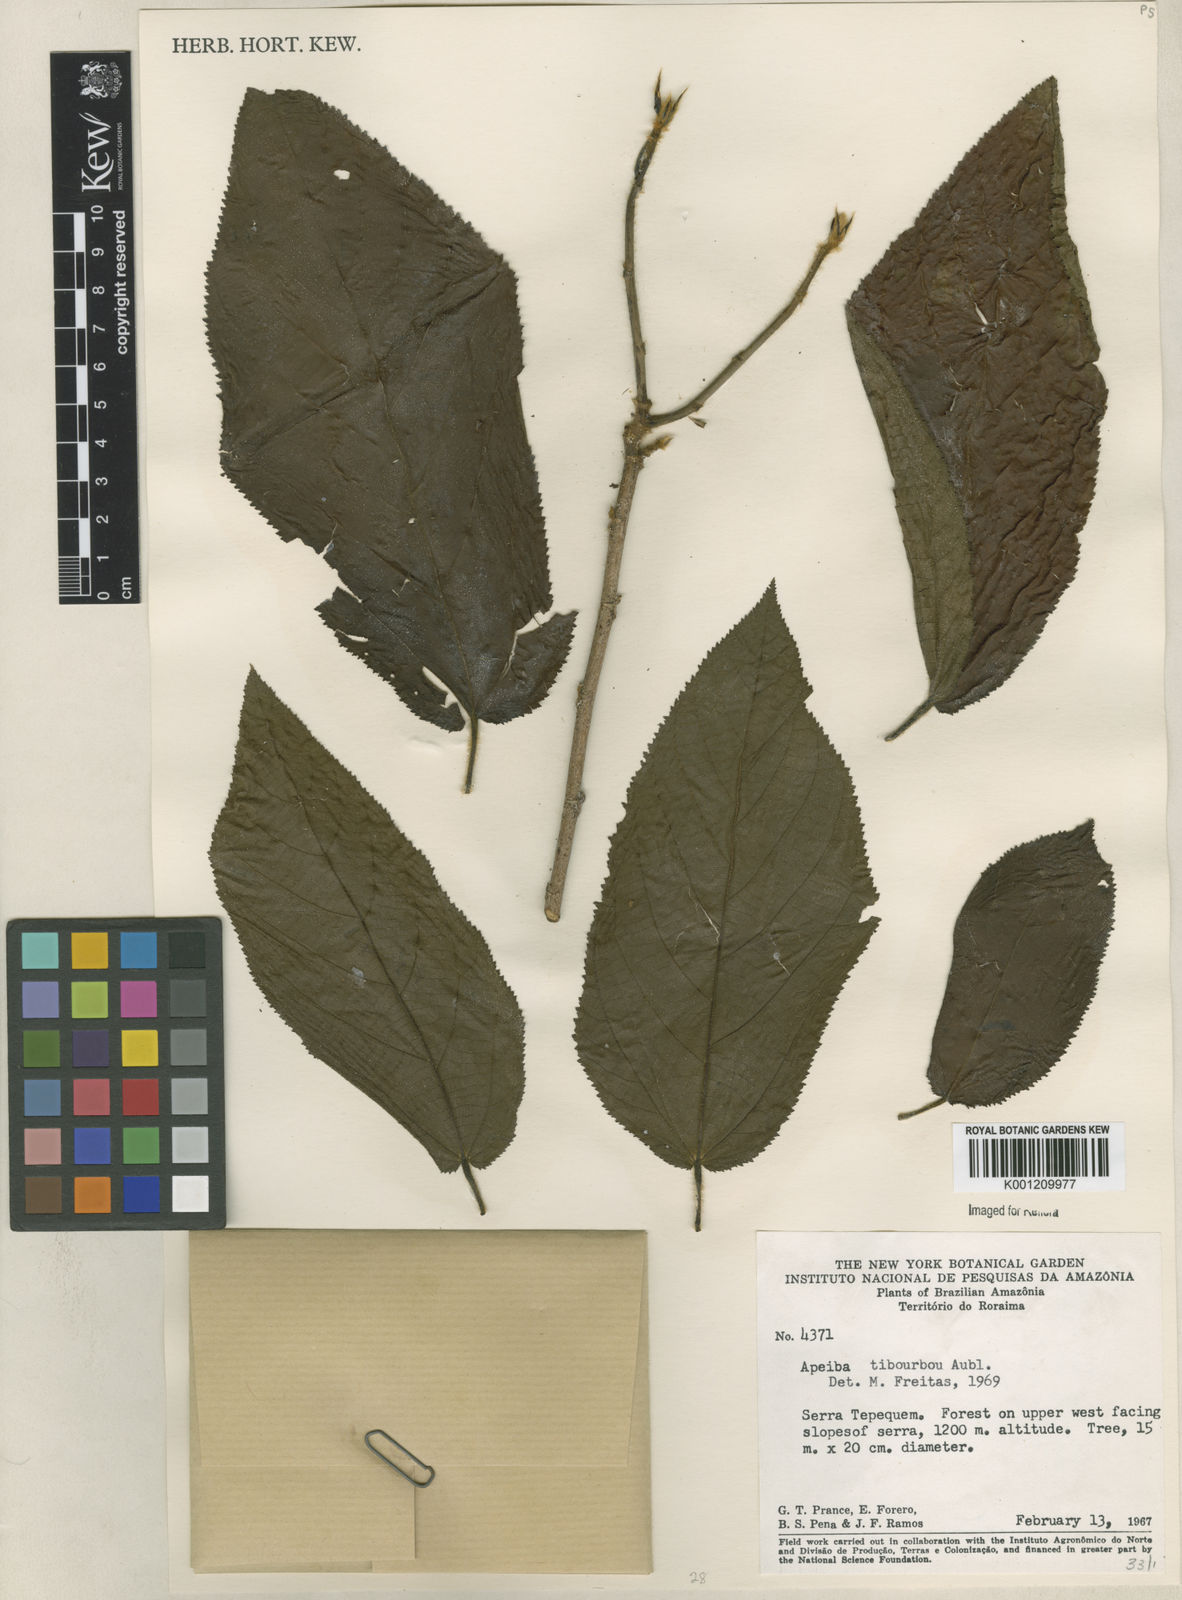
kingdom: Plantae
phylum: Tracheophyta
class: Magnoliopsida
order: Malvales
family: Malvaceae
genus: Apeiba
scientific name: Apeiba tibourbou
